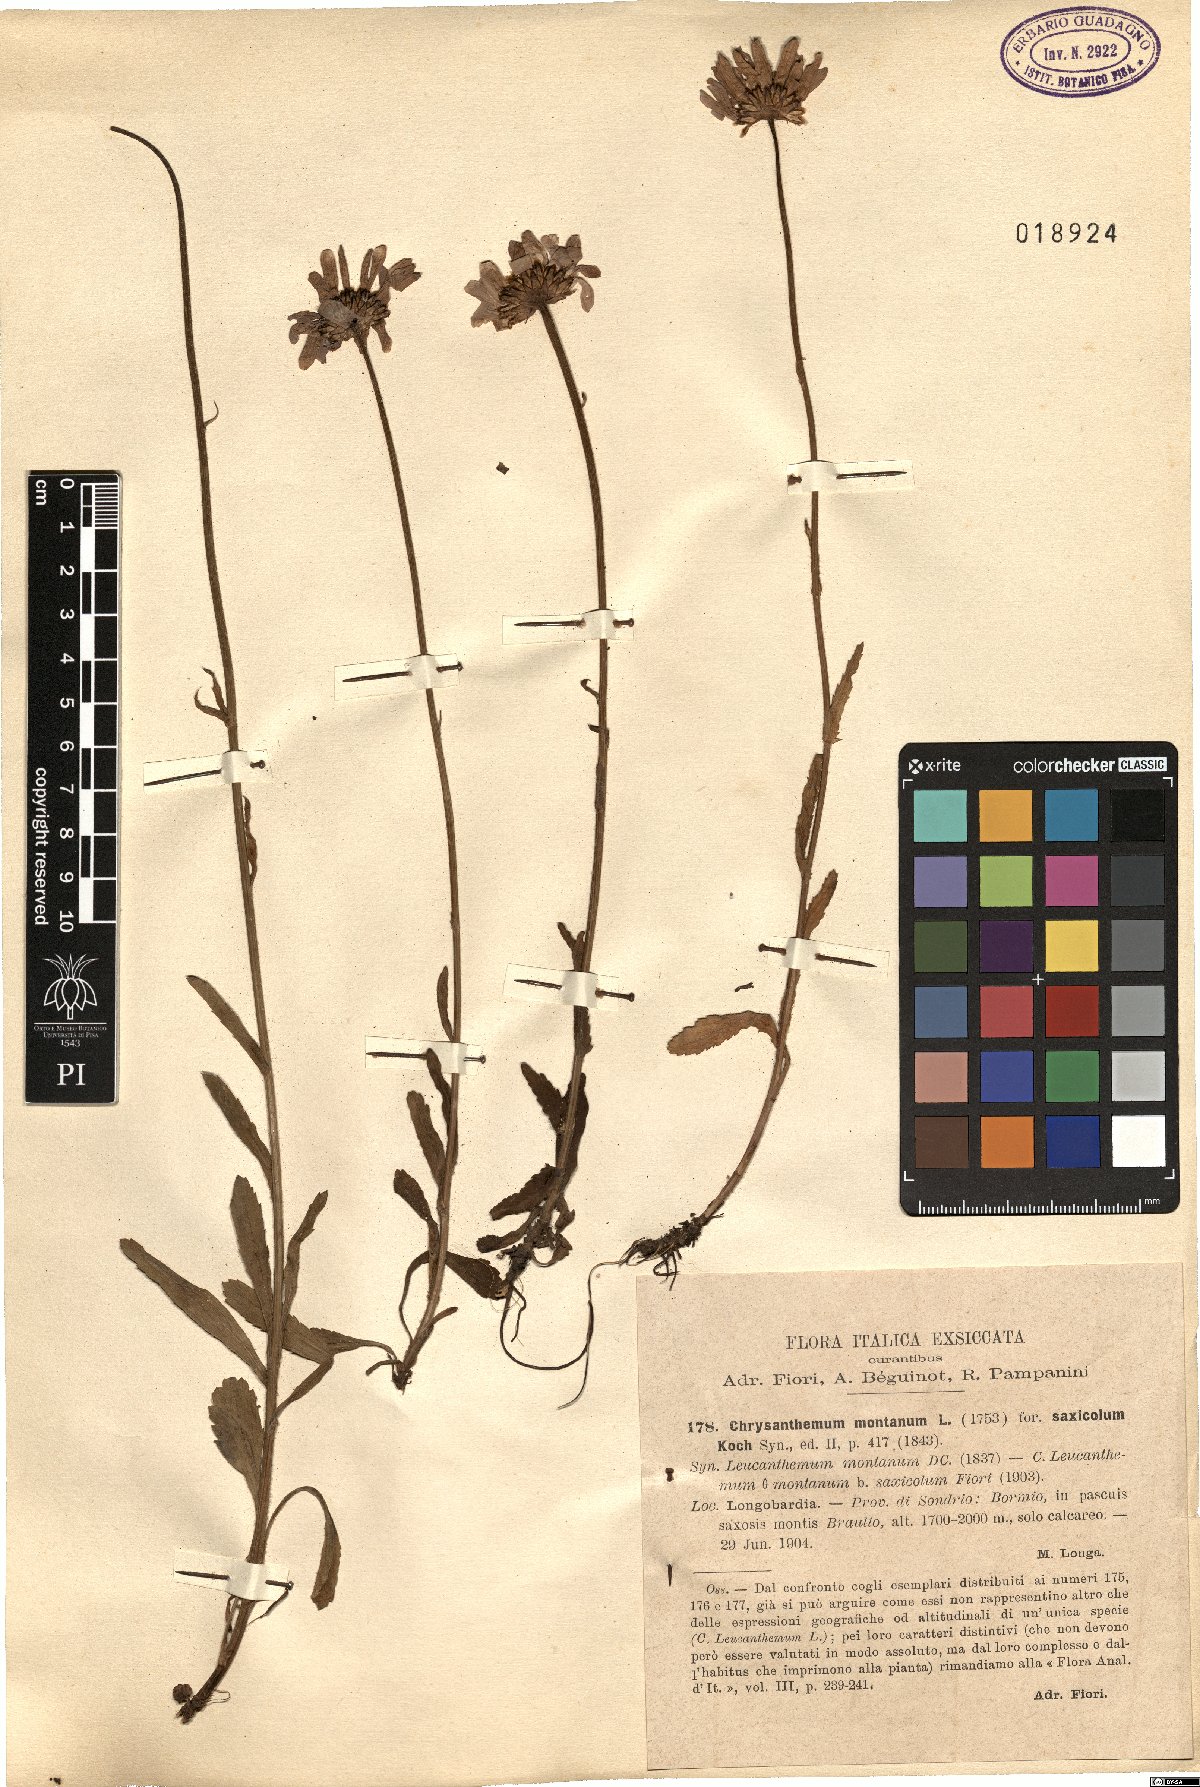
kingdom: Plantae
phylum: Tracheophyta
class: Magnoliopsida
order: Asterales
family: Asteraceae
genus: Leucanthemum
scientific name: Leucanthemum heterophyllum
